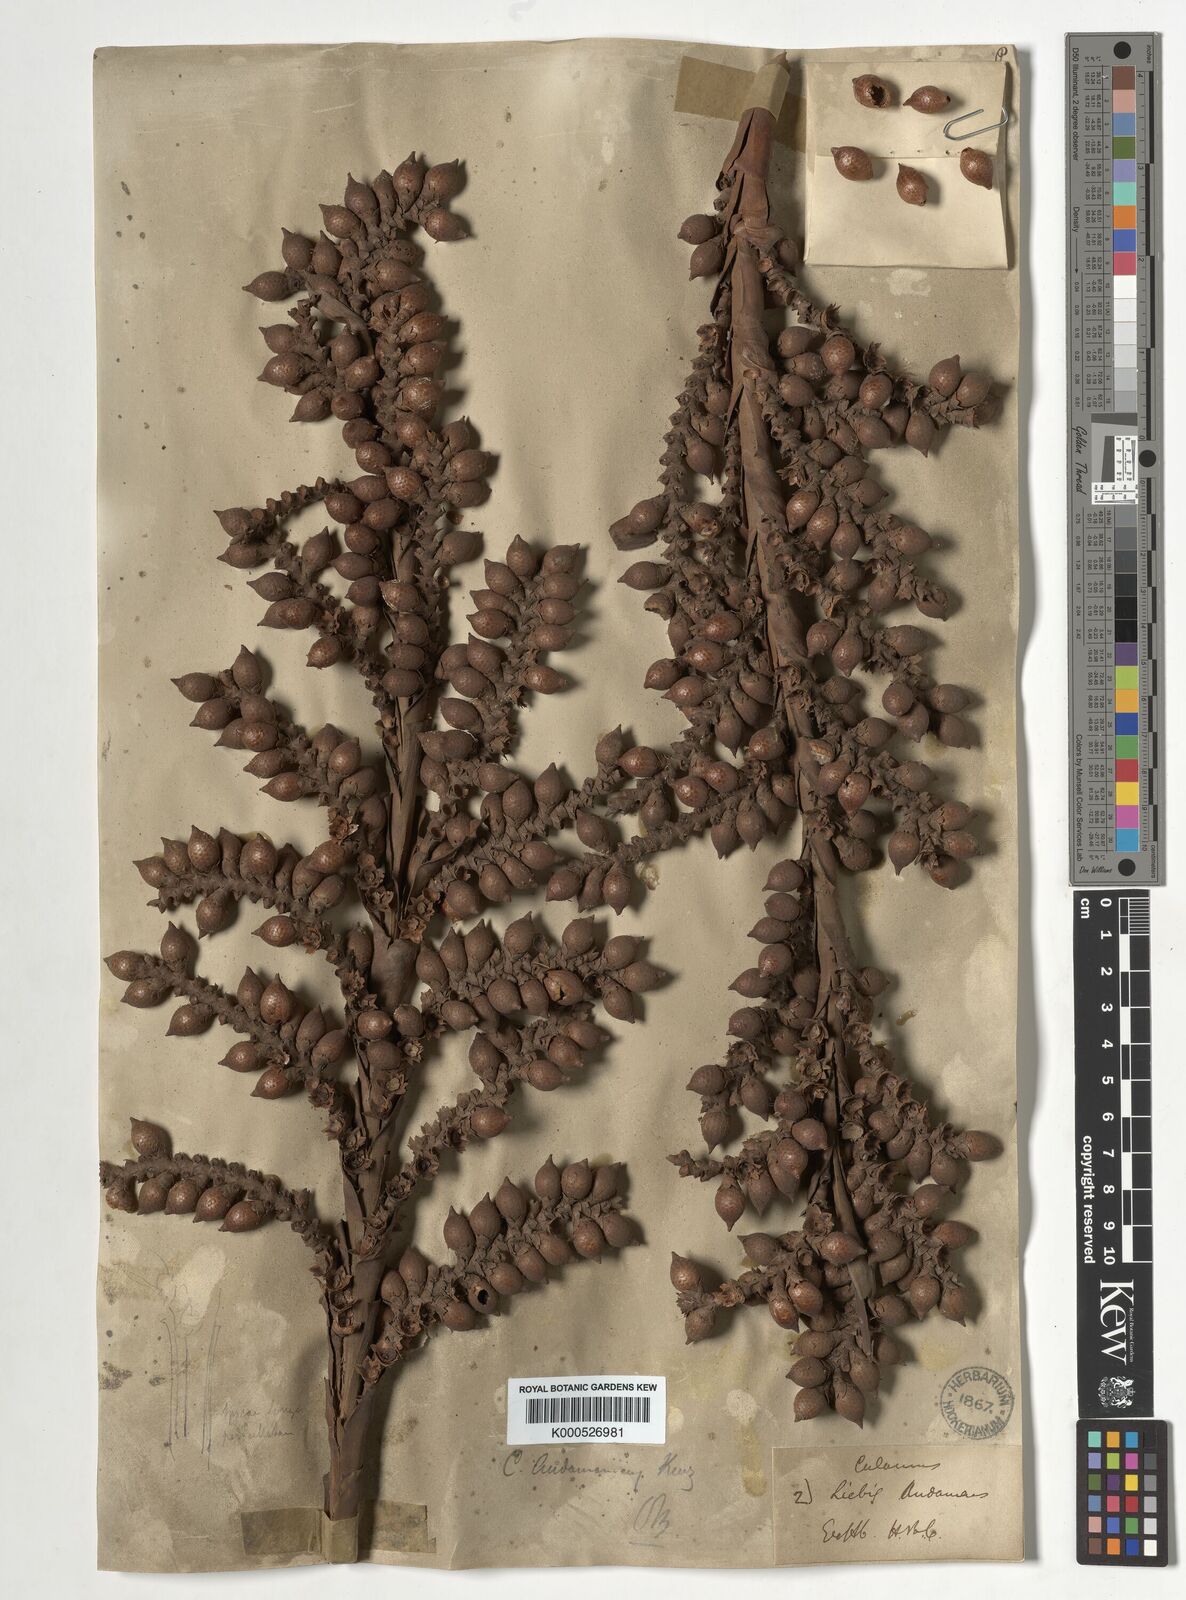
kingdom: Plantae
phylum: Tracheophyta
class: Liliopsida
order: Arecales
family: Arecaceae
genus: Calamus
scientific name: Calamus andamanicus
